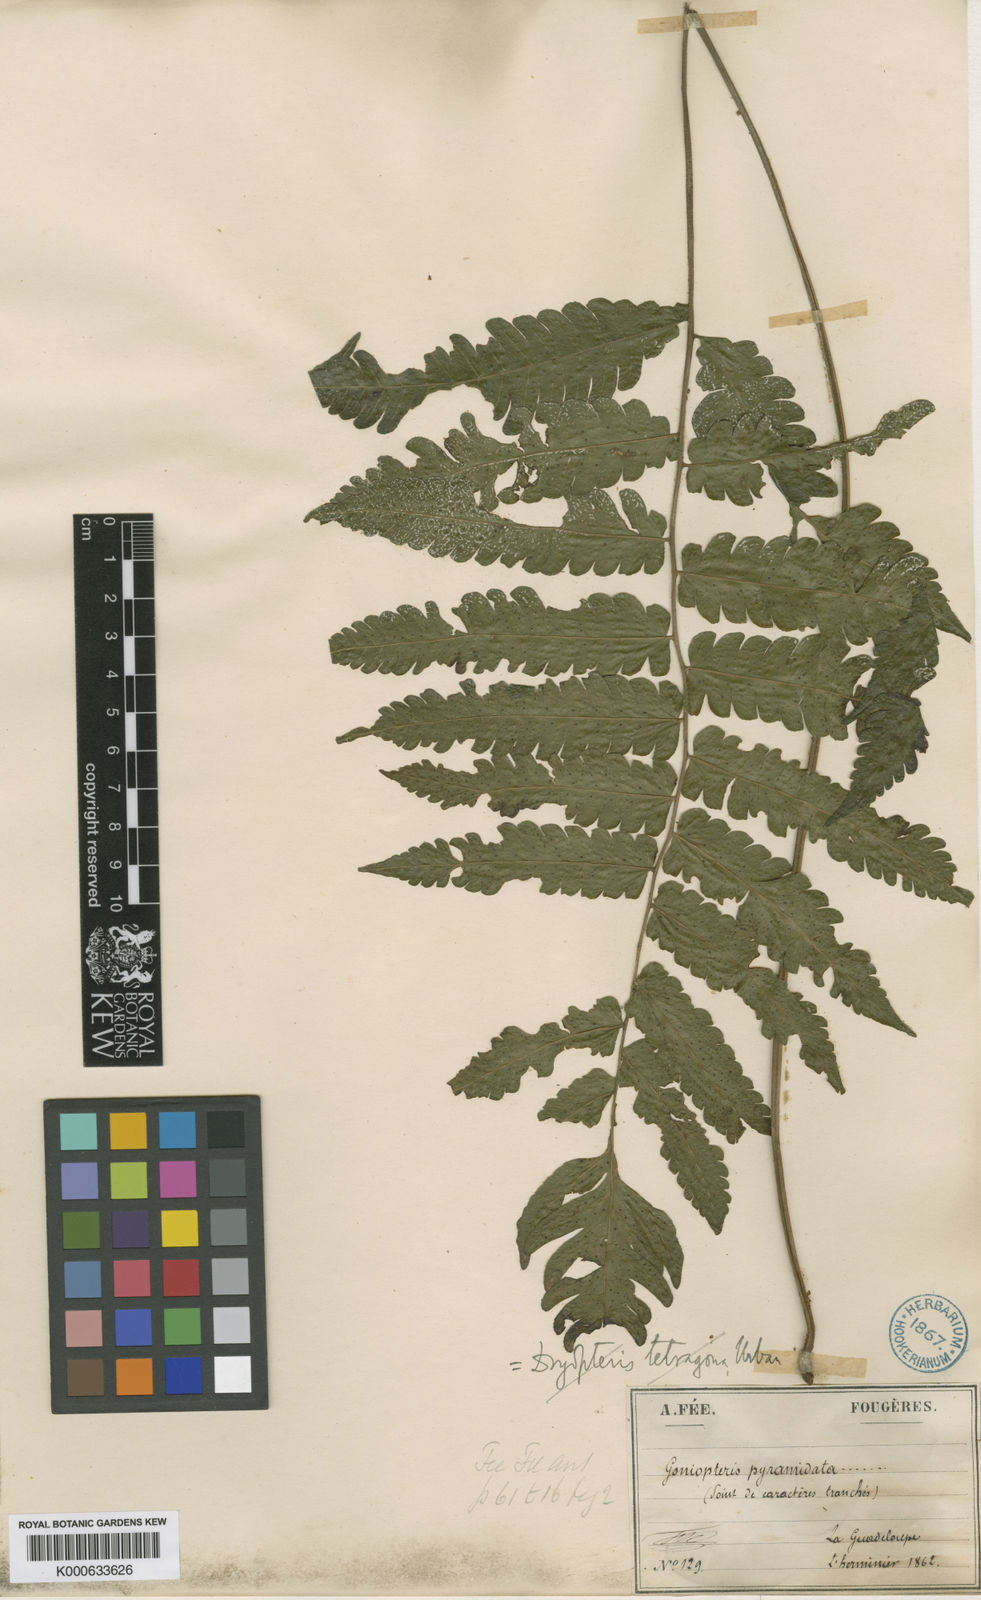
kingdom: Plantae
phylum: Tracheophyta
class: Polypodiopsida
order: Polypodiales
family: Thelypteridaceae
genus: Goniopteris
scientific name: Goniopteris
